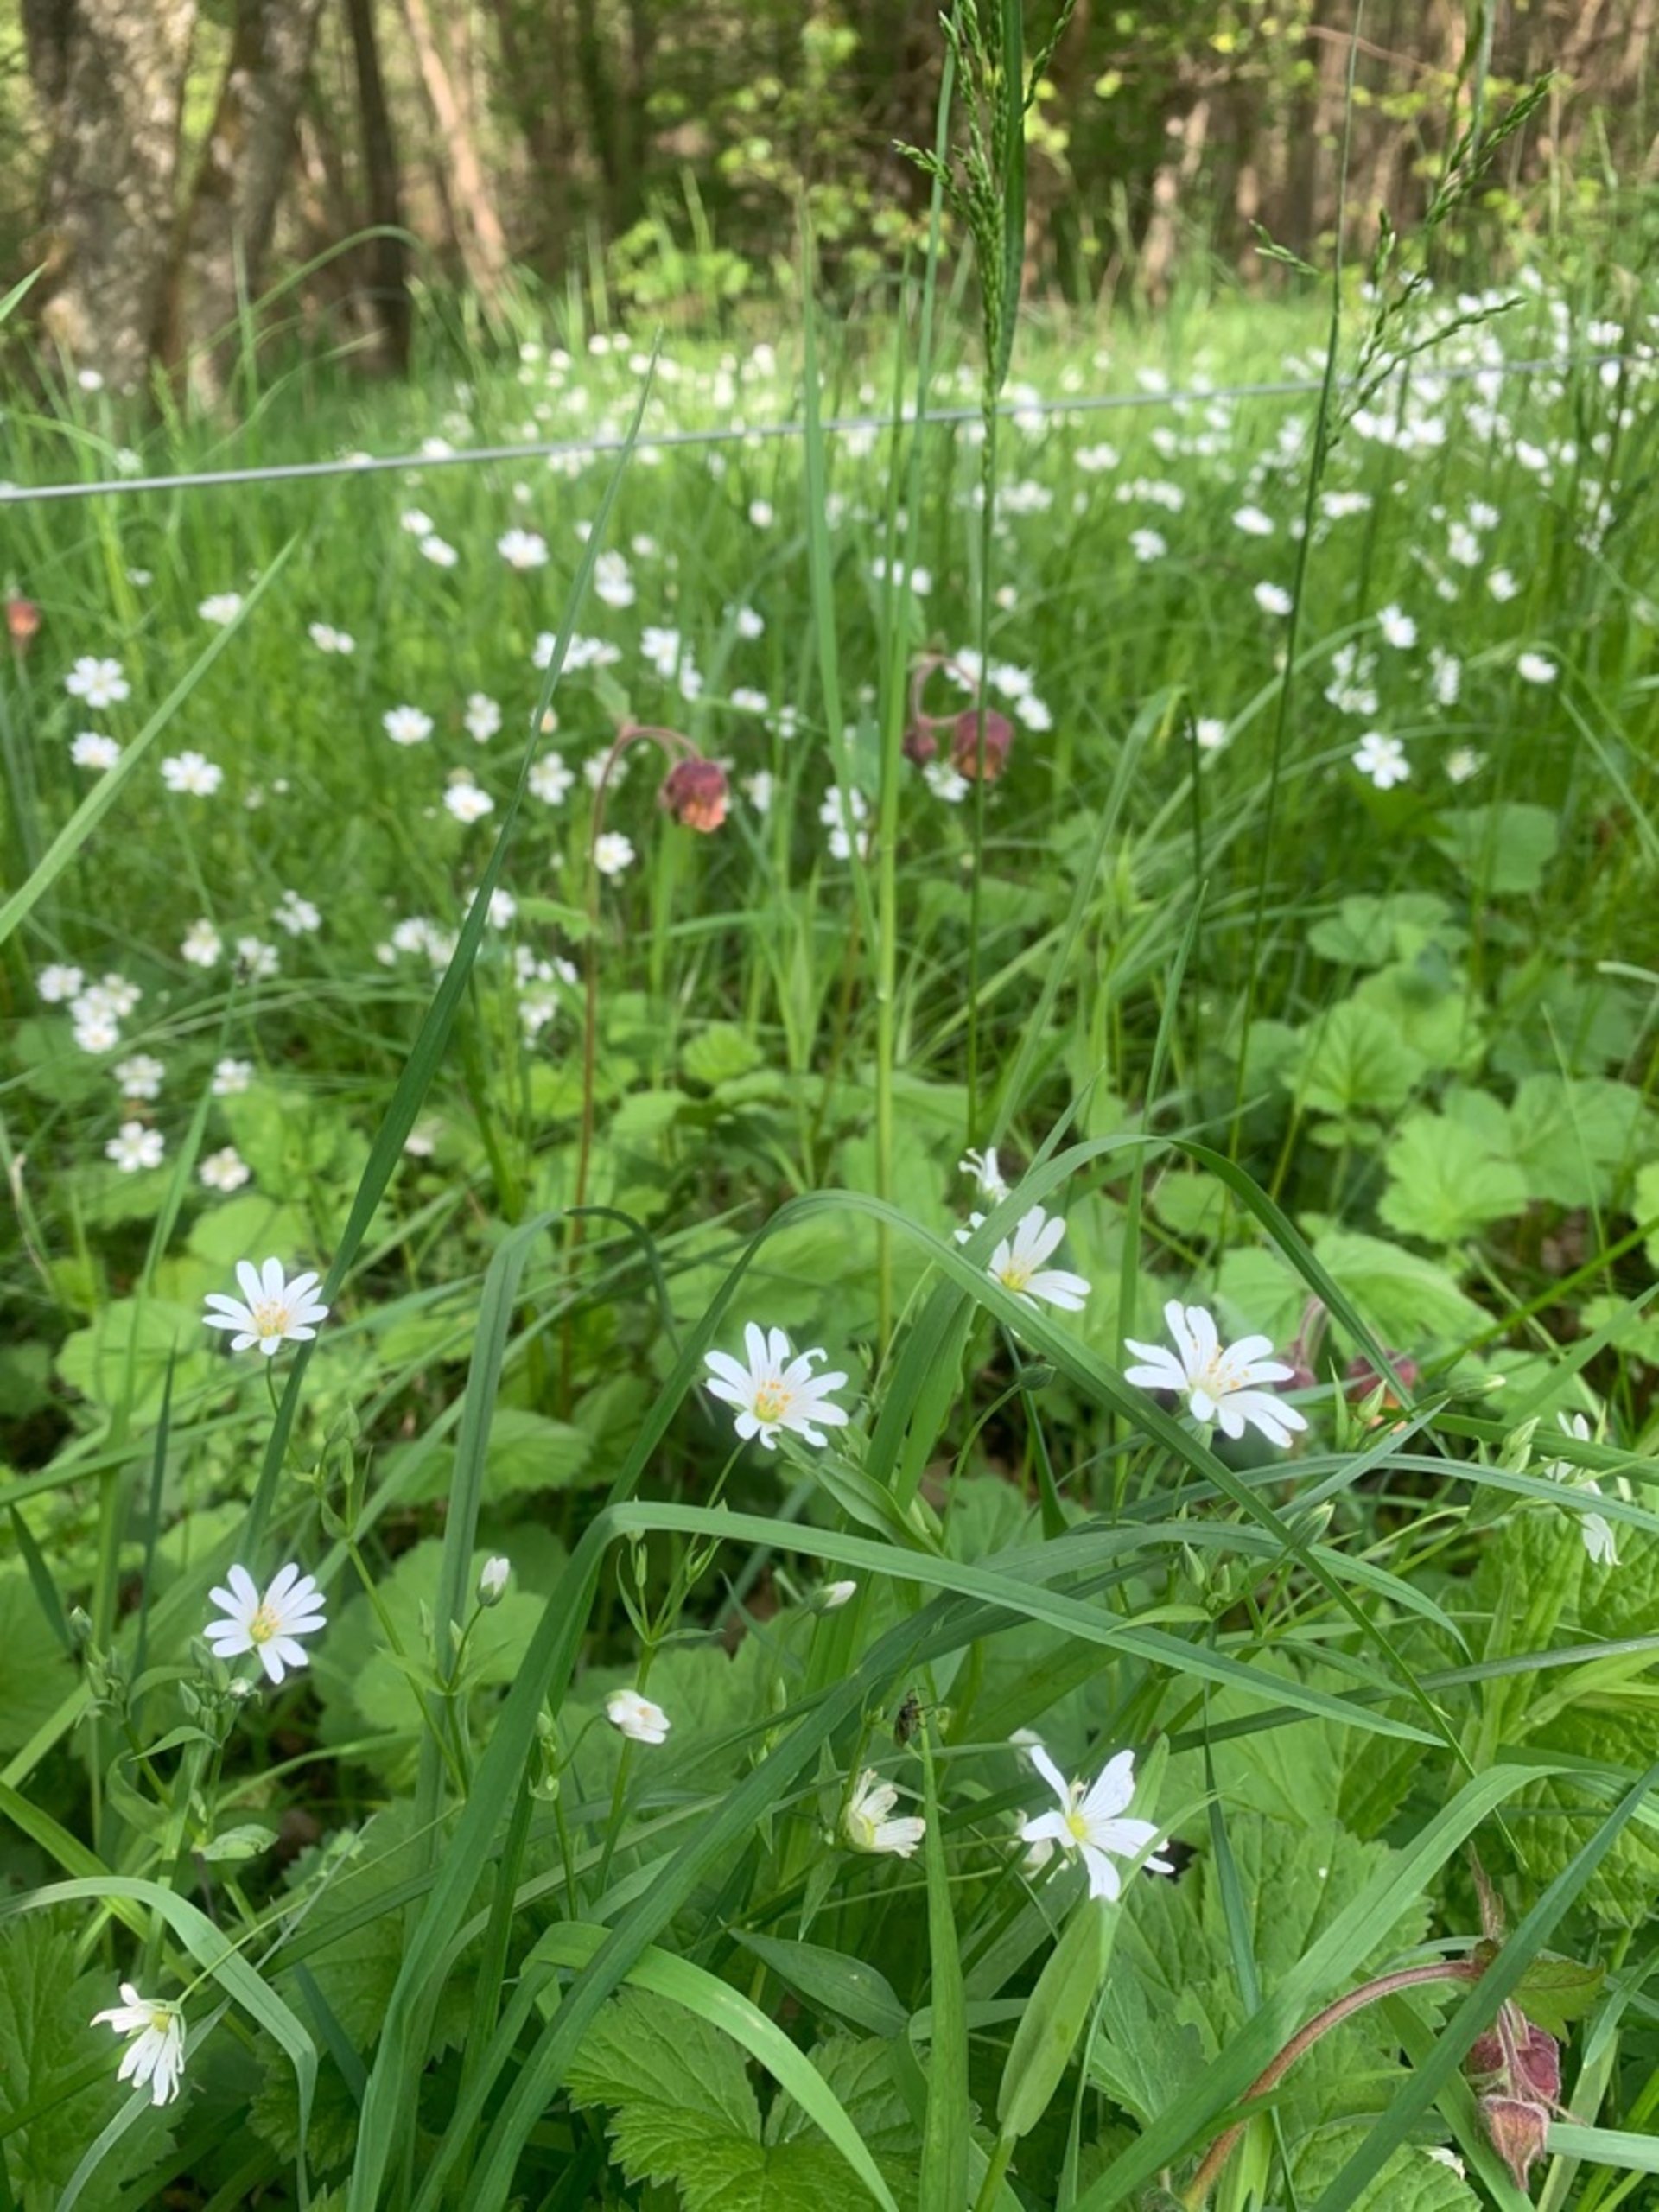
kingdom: Plantae
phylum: Tracheophyta
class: Magnoliopsida
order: Rosales
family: Rosaceae
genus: Geum
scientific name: Geum rivale
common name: Eng-nellikerod
